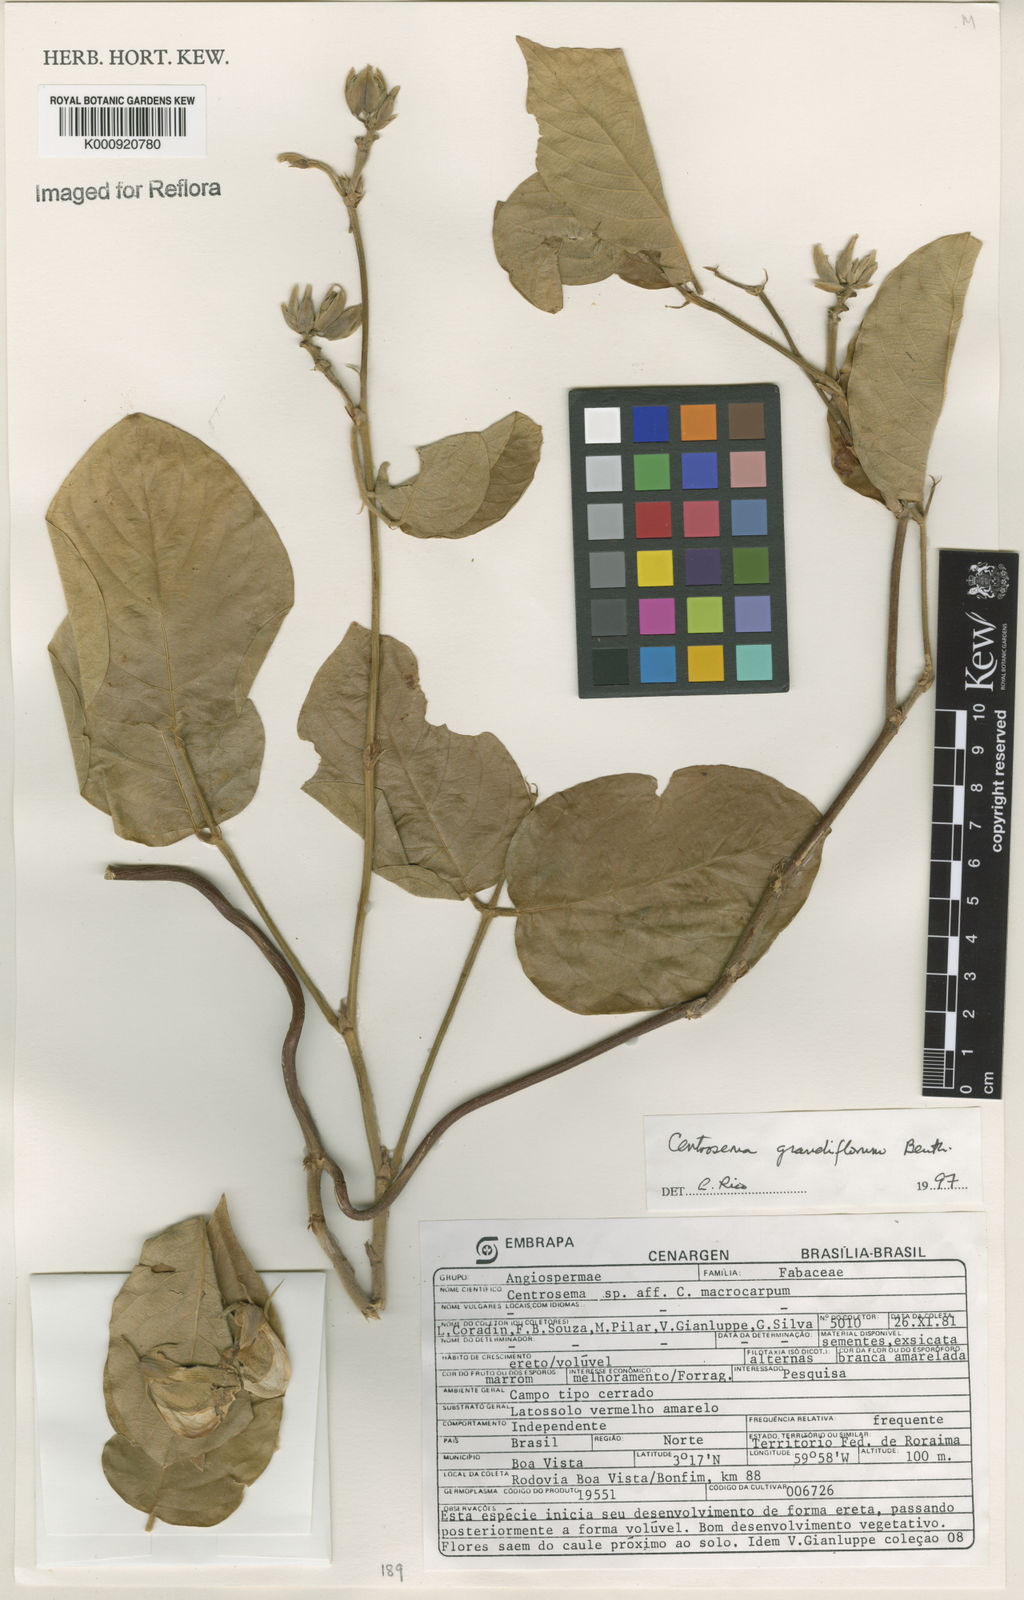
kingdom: Plantae
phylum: Tracheophyta
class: Magnoliopsida
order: Fabales
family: Fabaceae
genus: Centrosema
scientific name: Centrosema grandiflorum
